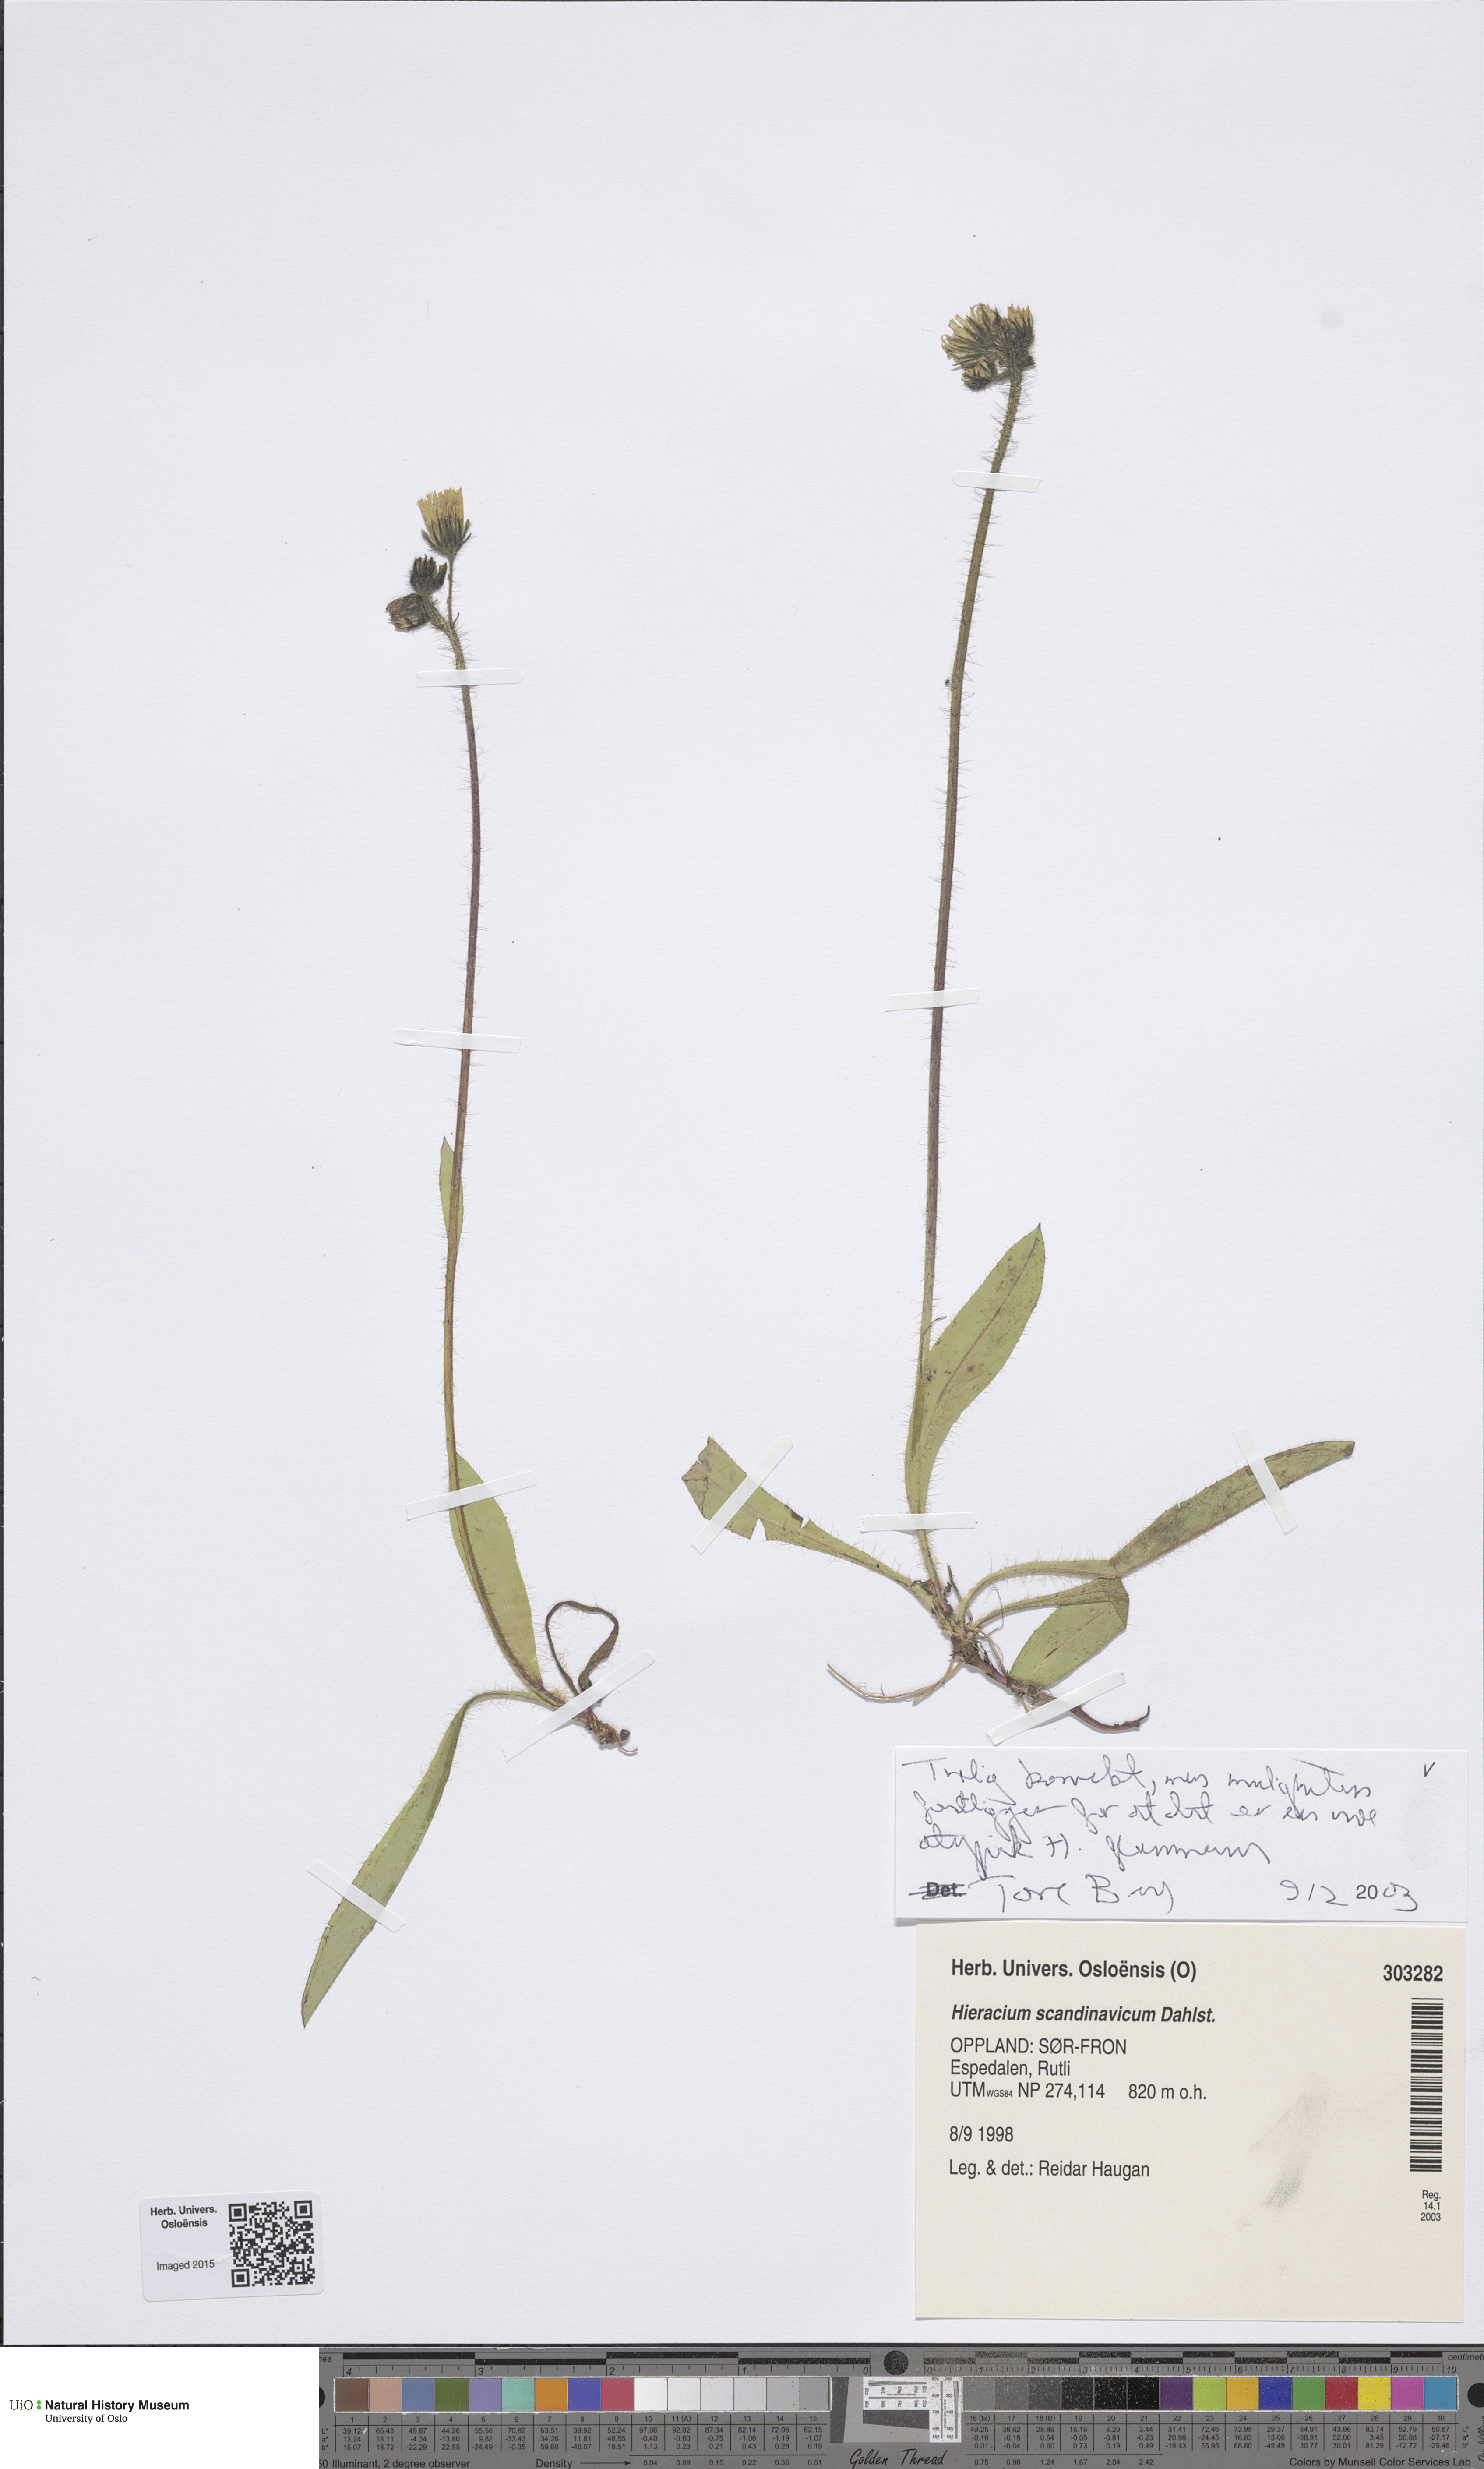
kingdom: Plantae
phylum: Tracheophyta
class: Magnoliopsida
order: Asterales
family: Asteraceae
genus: Pilosella
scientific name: Pilosella scandinavica
